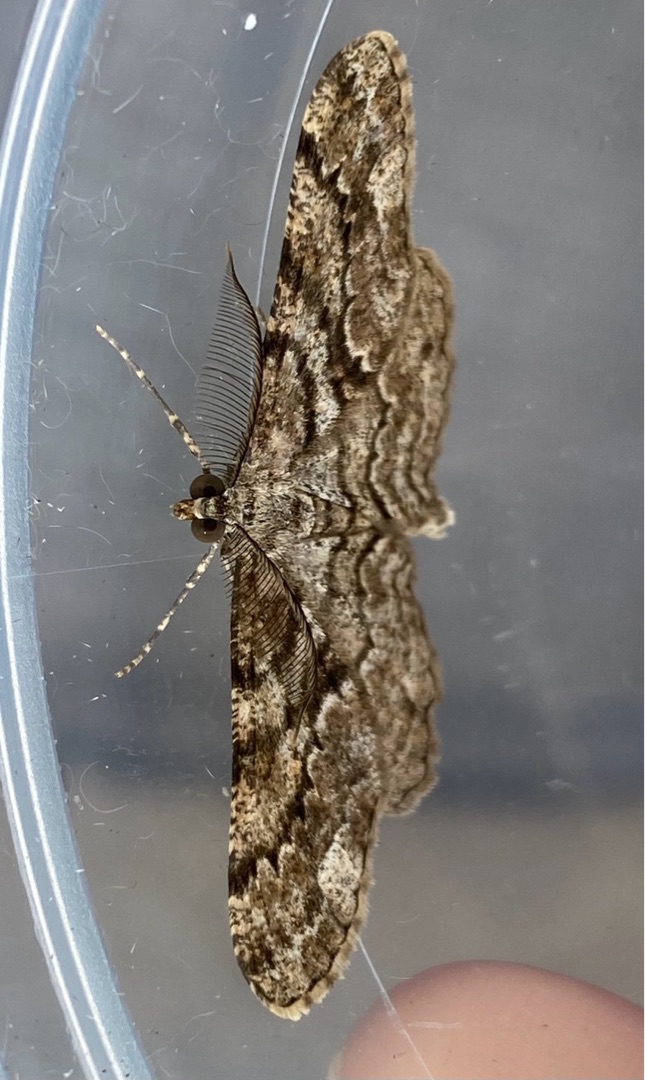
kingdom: Animalia
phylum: Arthropoda
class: Insecta
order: Lepidoptera
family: Geometridae
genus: Peribatodes
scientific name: Peribatodes secundaria
